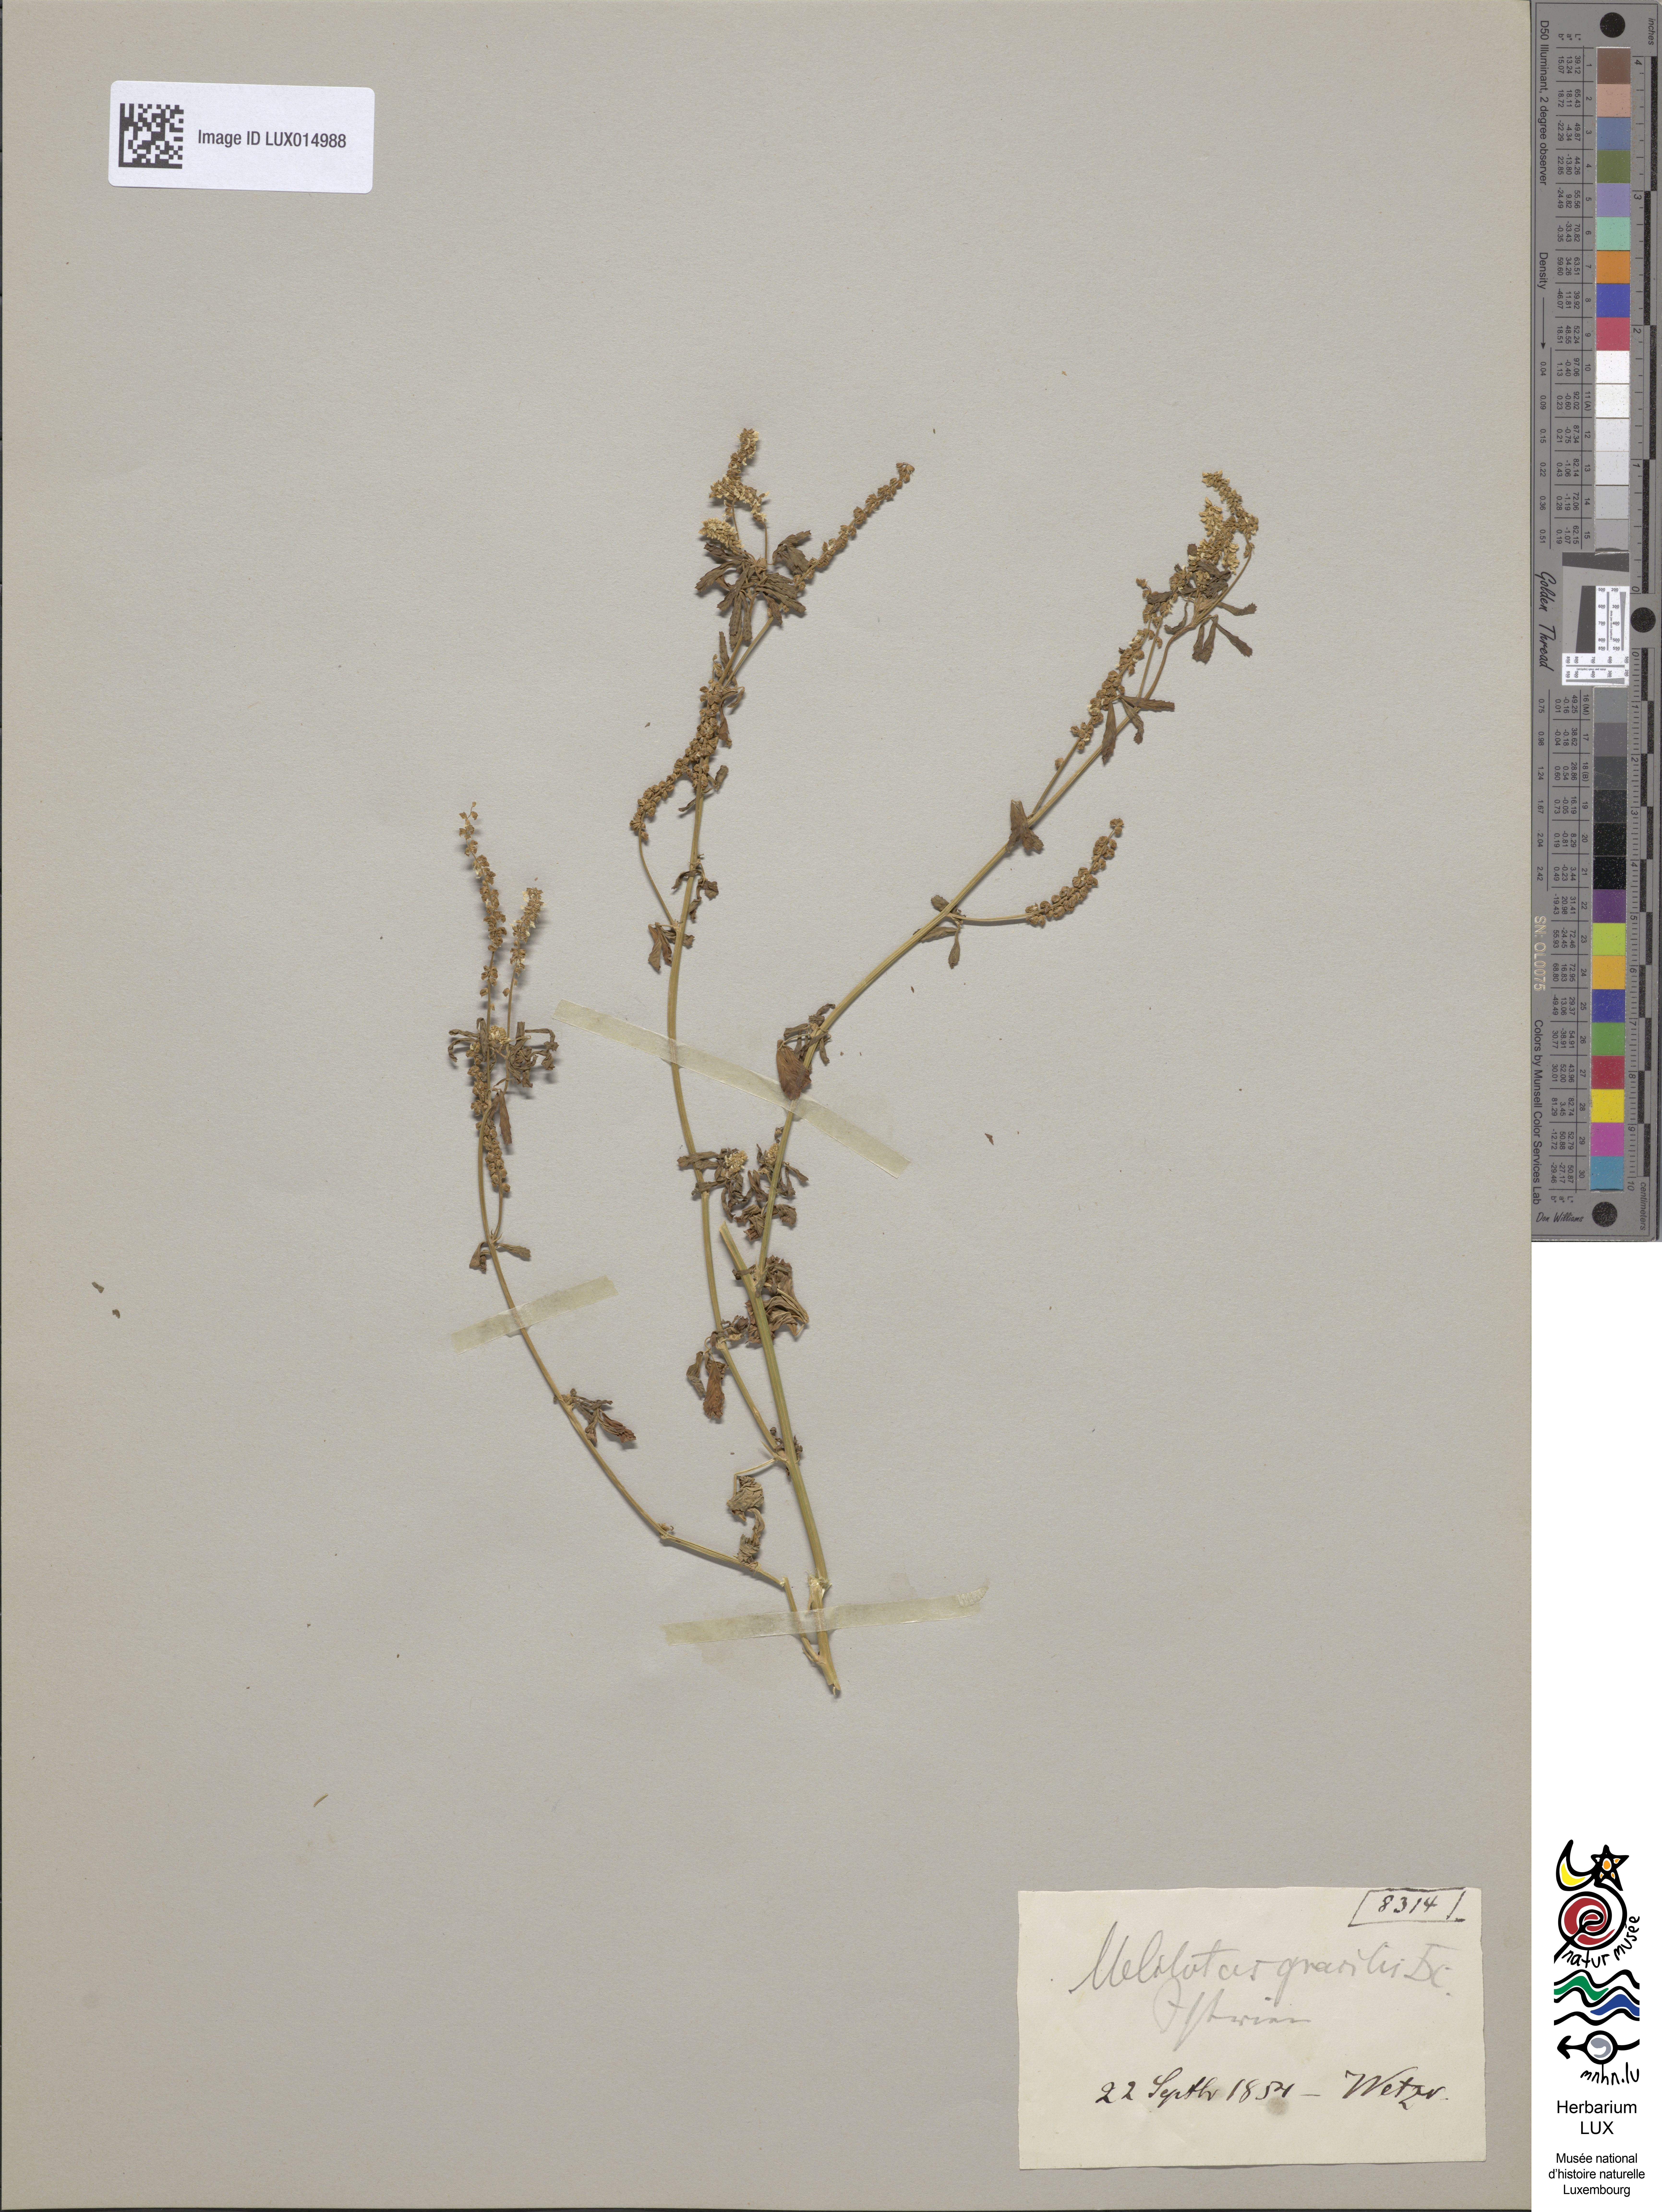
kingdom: Plantae
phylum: Tracheophyta
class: Magnoliopsida
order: Fabales
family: Fabaceae
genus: Melilotus
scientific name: Melilotus neapolitanus
